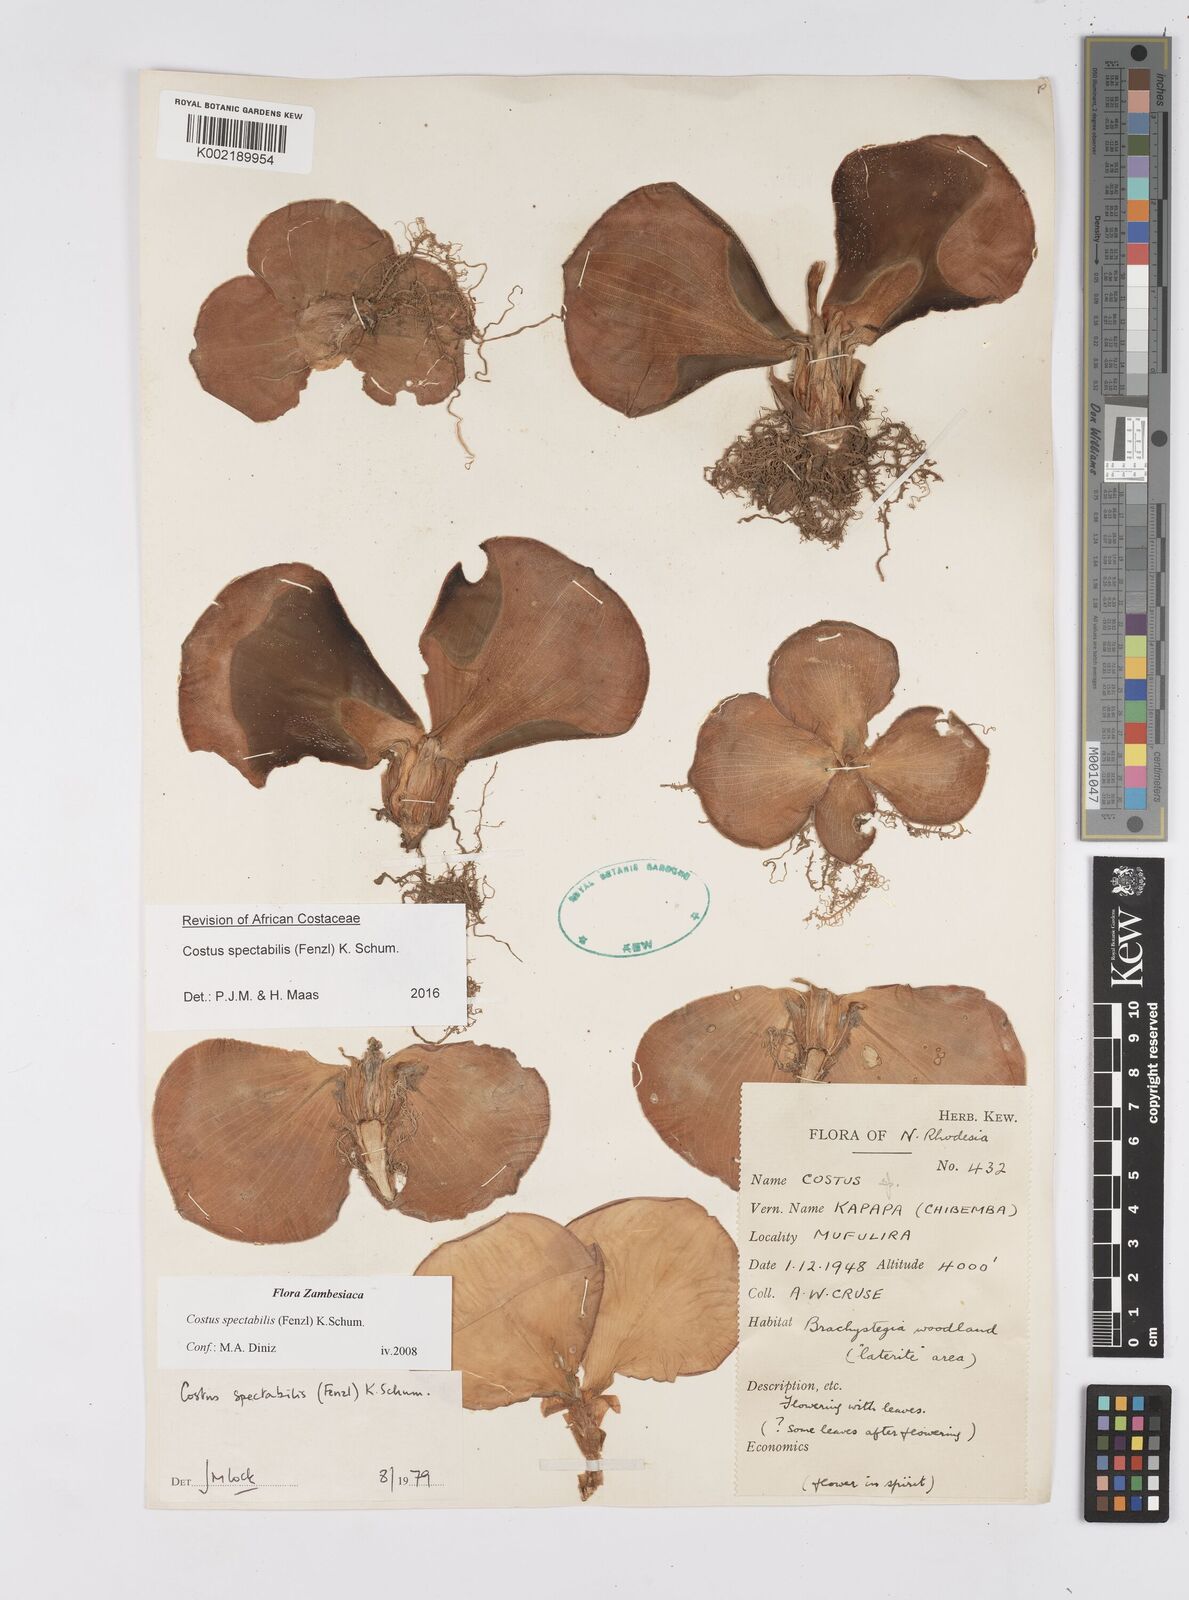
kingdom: Plantae
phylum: Tracheophyta
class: Liliopsida
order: Zingiberales
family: Costaceae
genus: Costus
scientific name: Costus spectabilis
